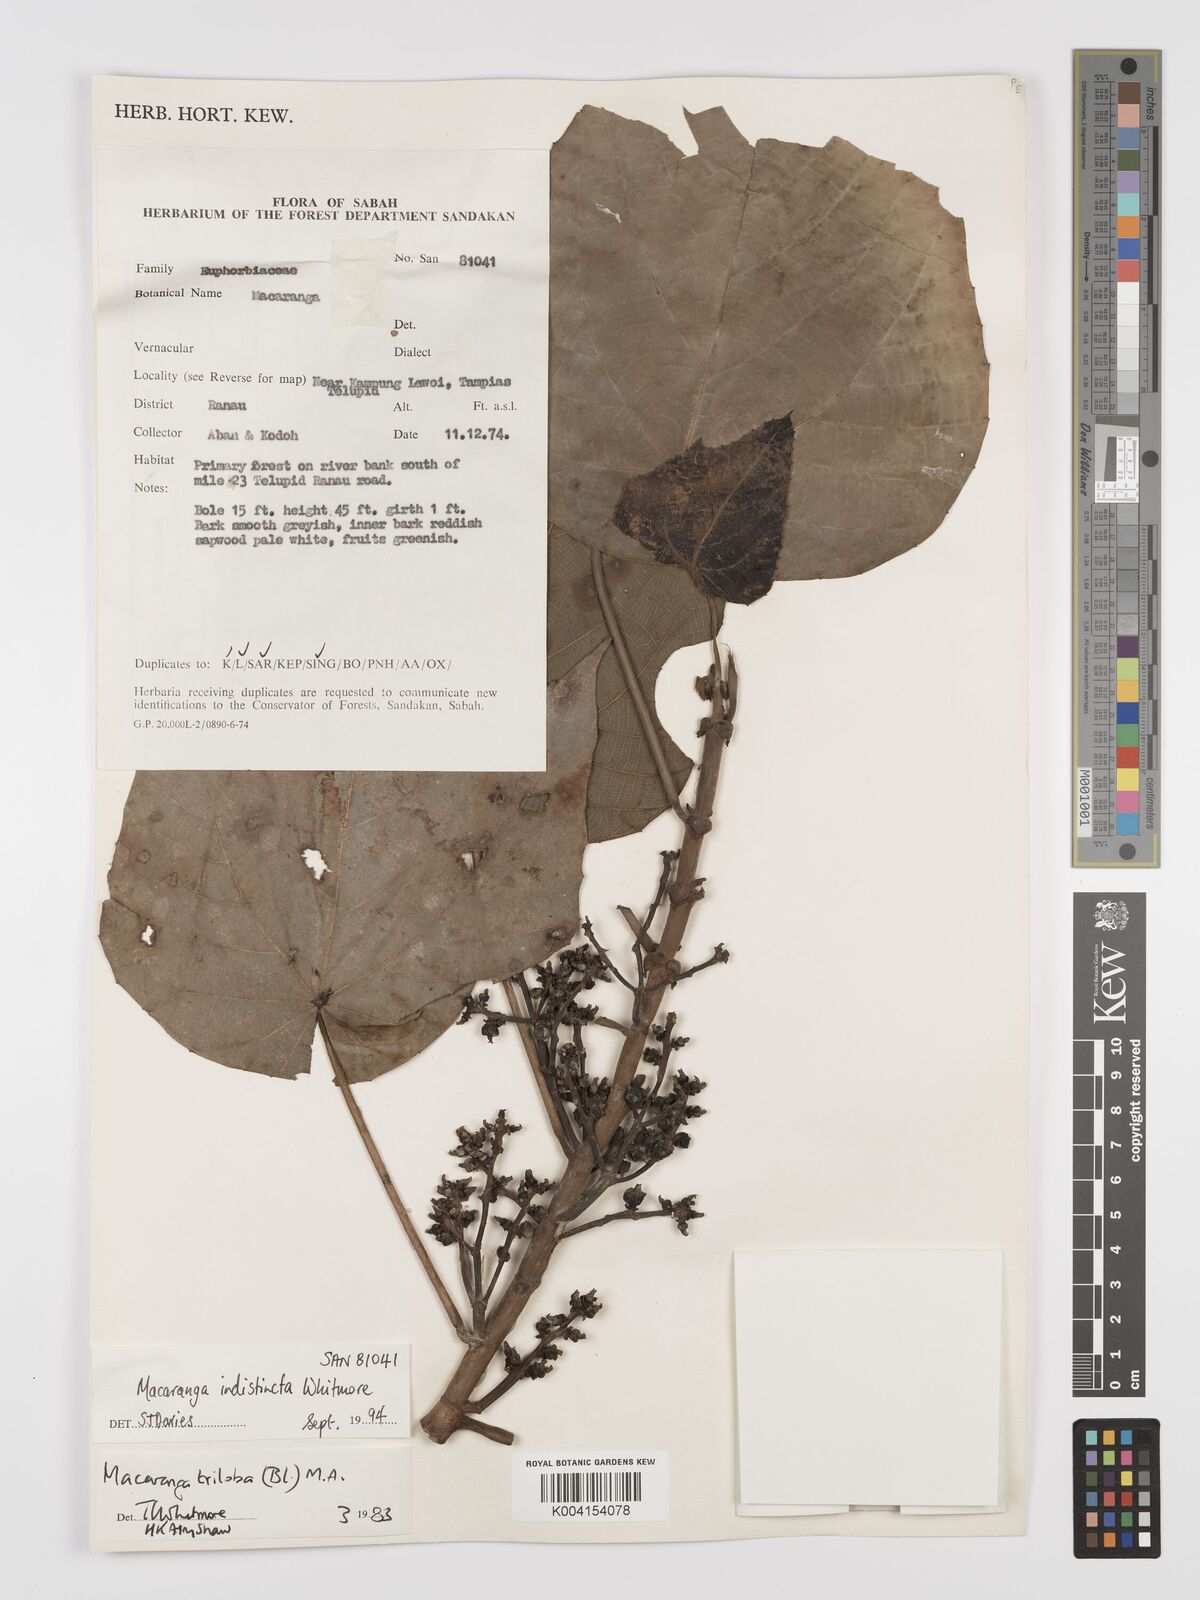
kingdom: Plantae
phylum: Tracheophyta
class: Magnoliopsida
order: Malpighiales
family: Euphorbiaceae
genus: Macaranga
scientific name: Macaranga indistincta
